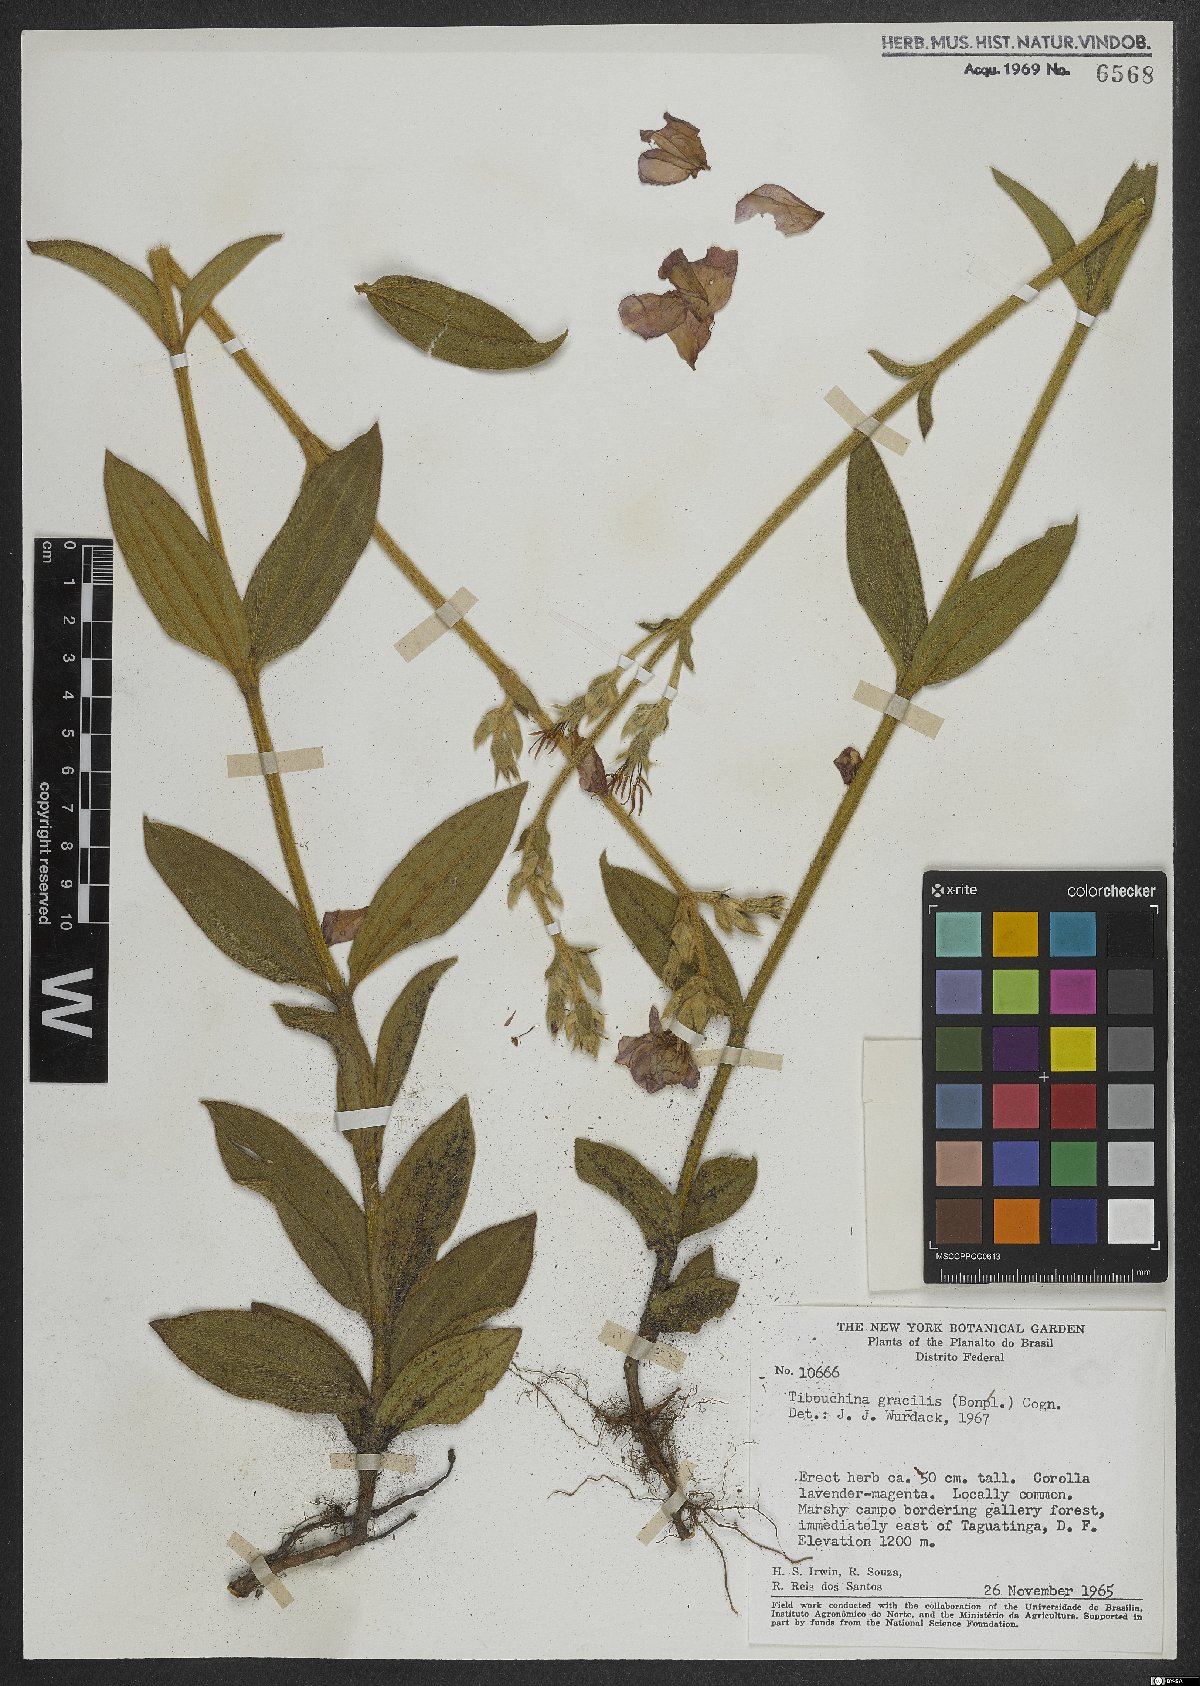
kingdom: Plantae
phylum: Tracheophyta
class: Magnoliopsida
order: Myrtales
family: Melastomataceae
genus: Chaetogastra
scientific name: Chaetogastra gracilis
